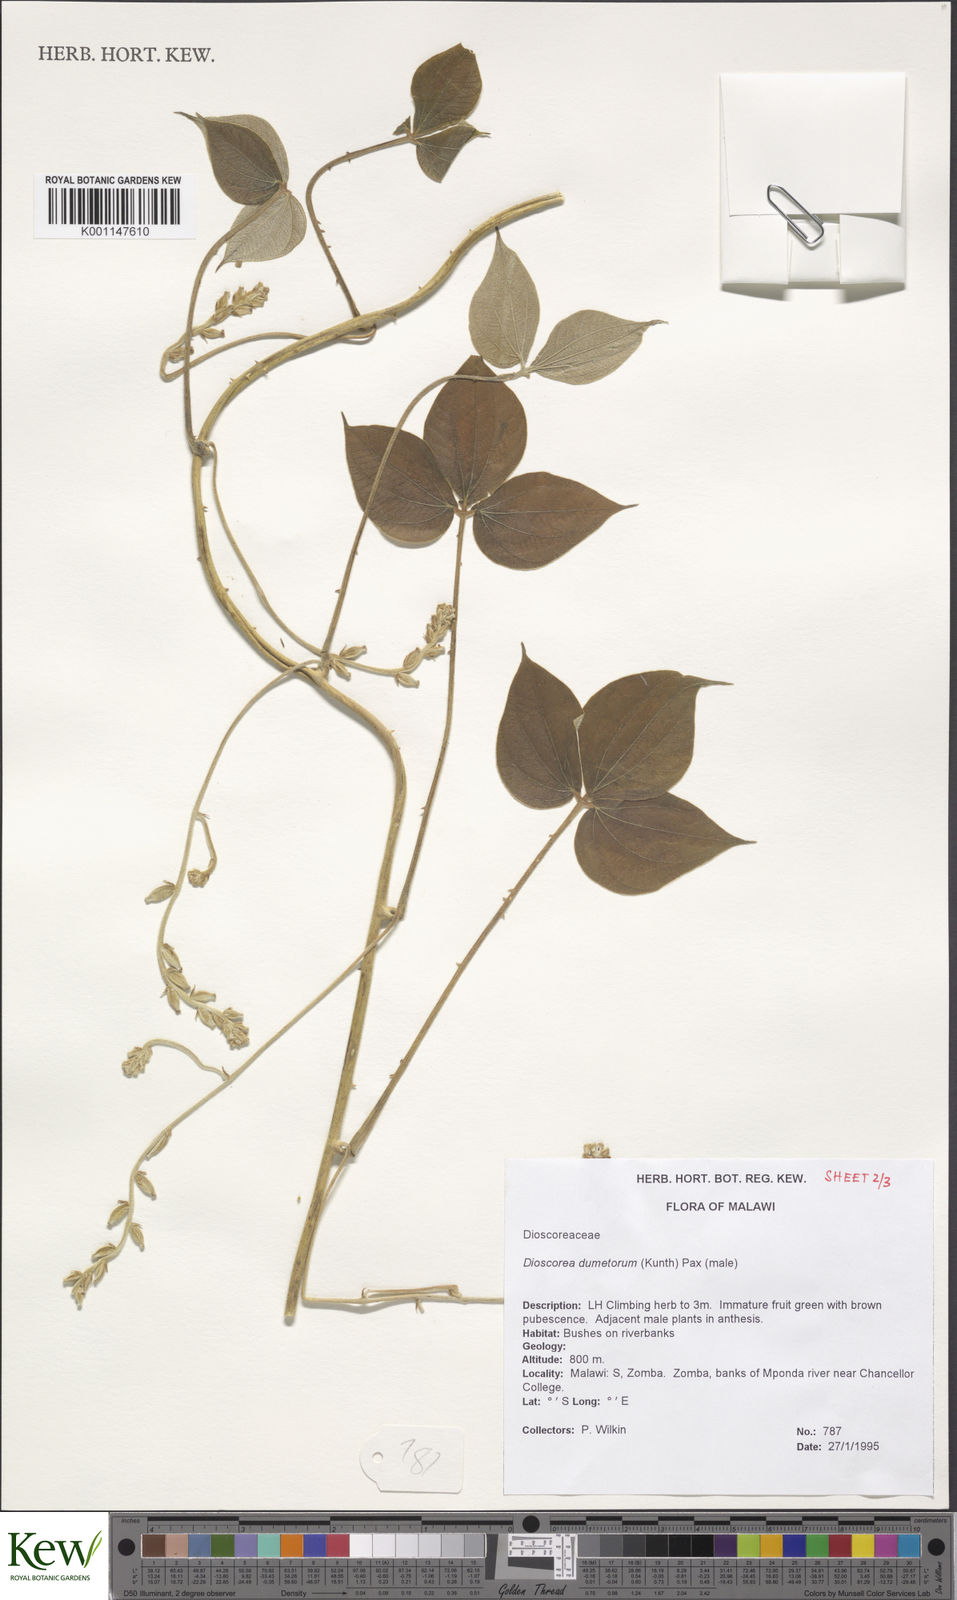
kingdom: Plantae
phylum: Tracheophyta
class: Liliopsida
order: Dioscoreales
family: Dioscoreaceae
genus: Dioscorea
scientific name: Dioscorea dumetorum
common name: African bitter yam
